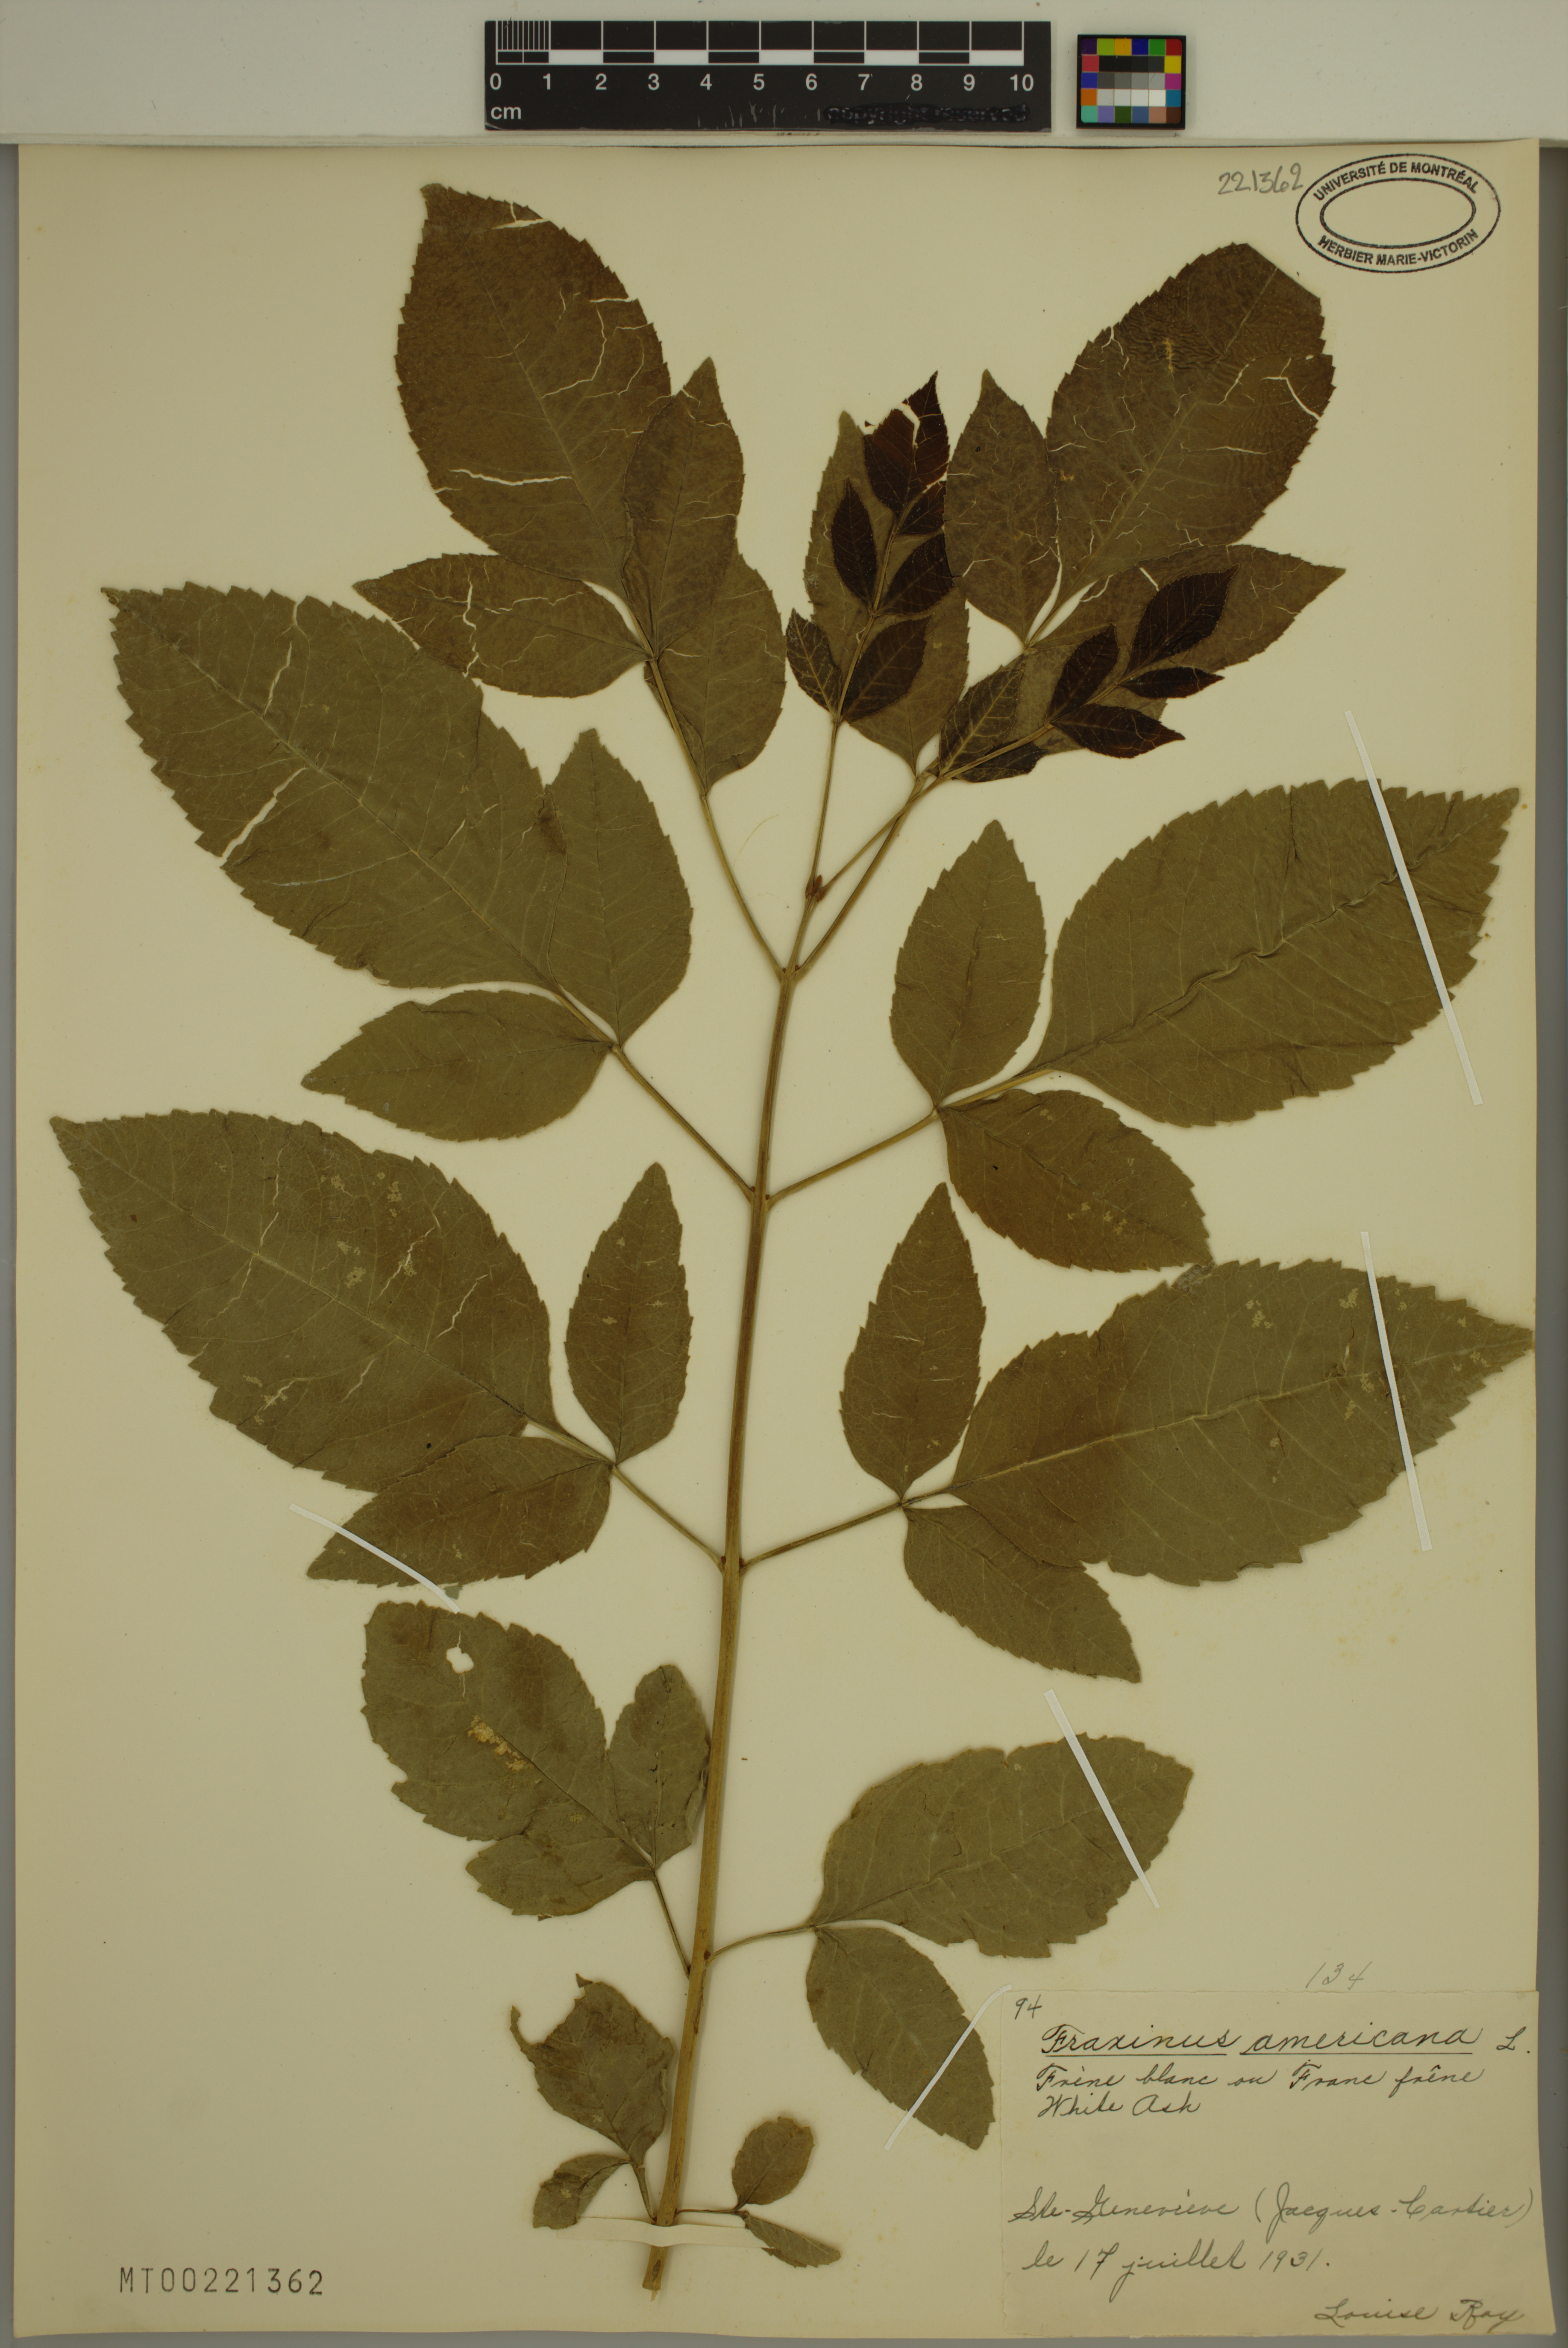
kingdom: Plantae
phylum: Tracheophyta
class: Magnoliopsida
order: Lamiales
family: Oleaceae
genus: Fraxinus
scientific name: Fraxinus pennsylvanica
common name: Green ash
